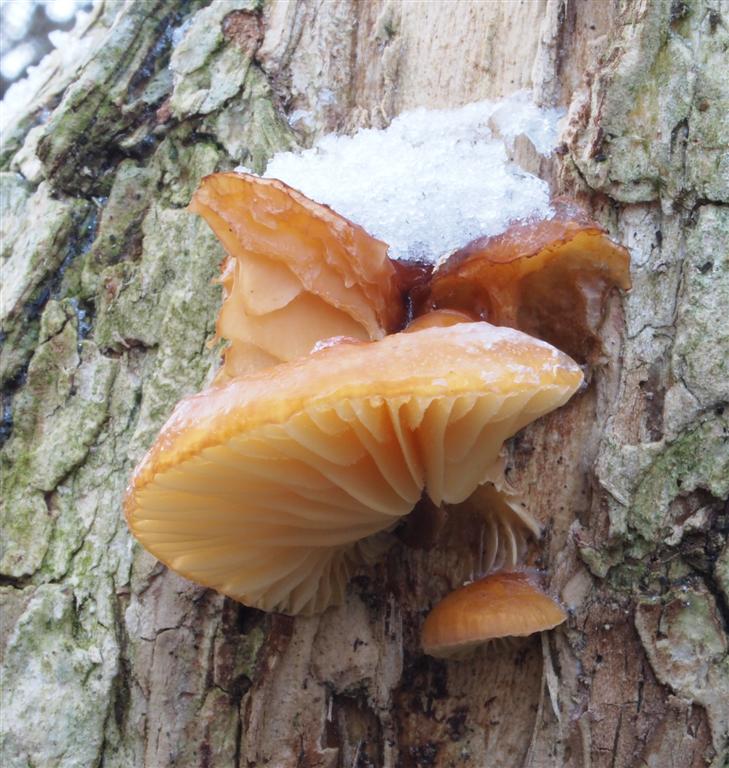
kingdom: Fungi
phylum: Basidiomycota
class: Agaricomycetes
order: Agaricales
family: Physalacriaceae
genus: Flammulina
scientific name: Flammulina elastica
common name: pile-fløjlsfod
